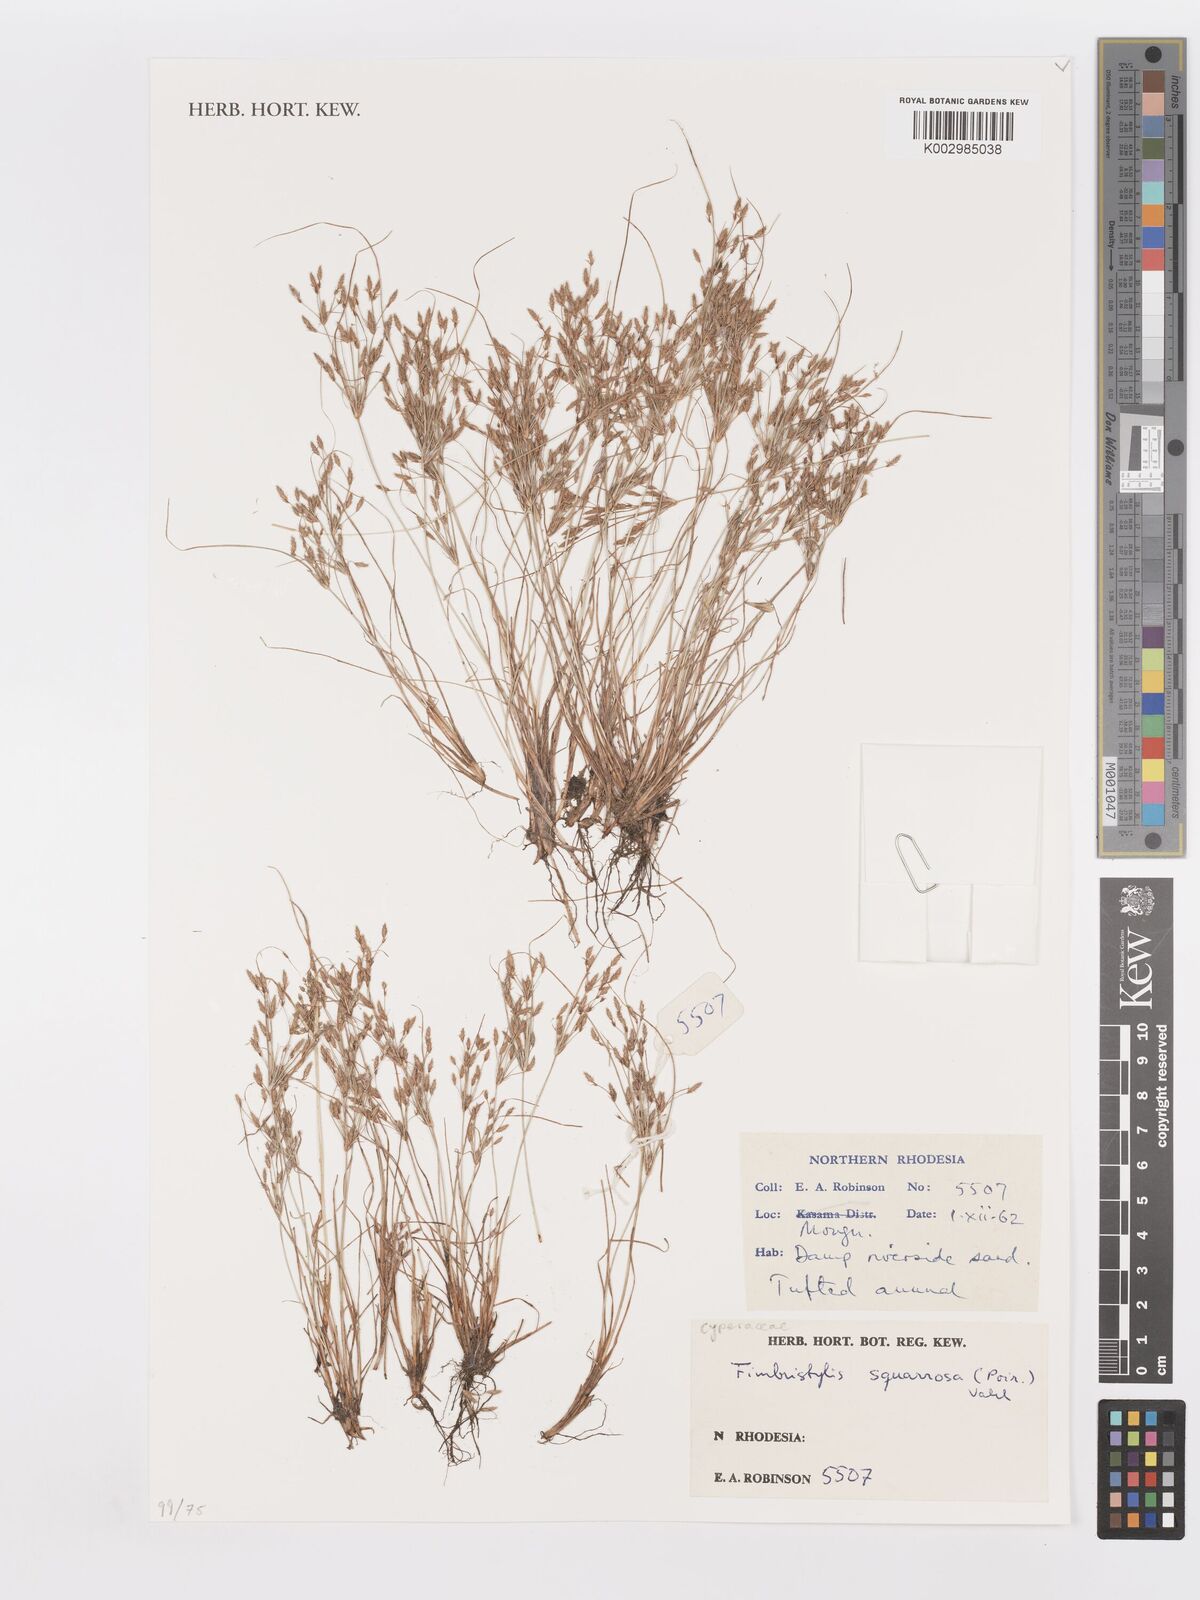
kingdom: Plantae
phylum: Tracheophyta
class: Liliopsida
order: Poales
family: Cyperaceae
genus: Fimbristylis
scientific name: Fimbristylis squarrosa
